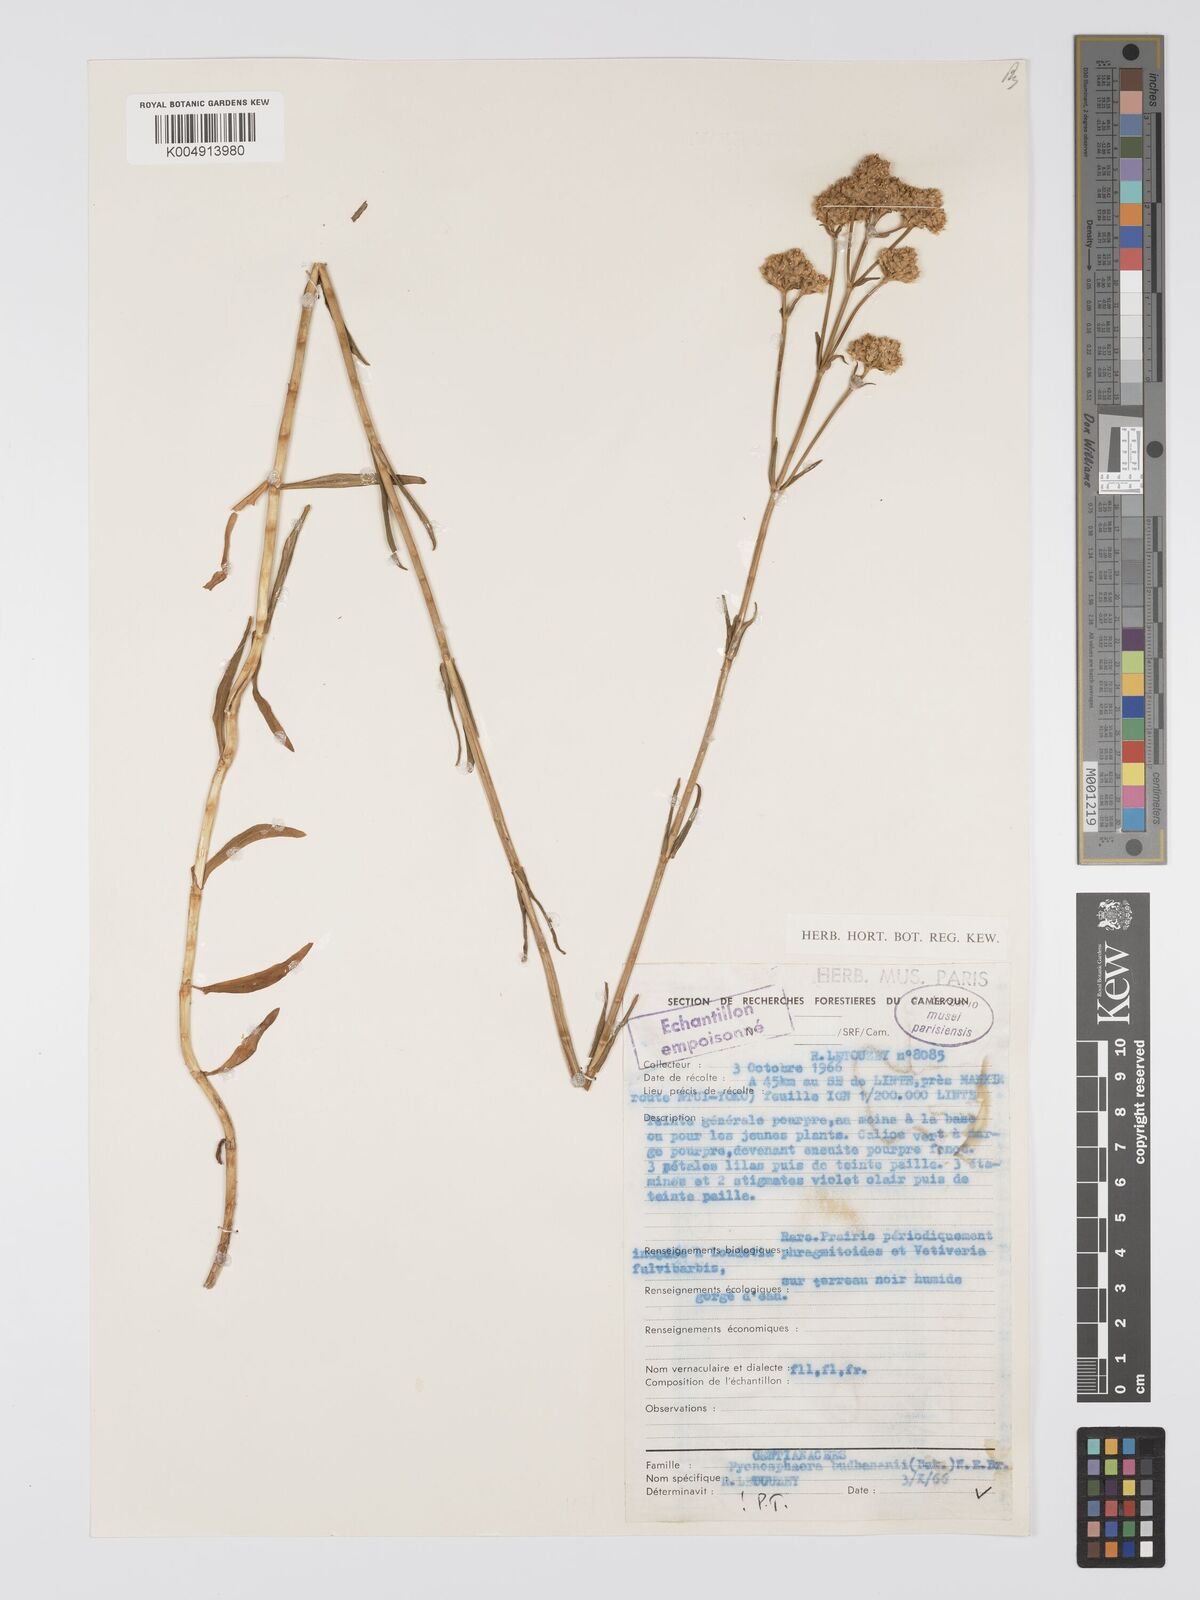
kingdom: Plantae
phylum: Tracheophyta
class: Magnoliopsida
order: Gentianales
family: Gentianaceae
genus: Pycnosphaera
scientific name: Pycnosphaera buchananii
